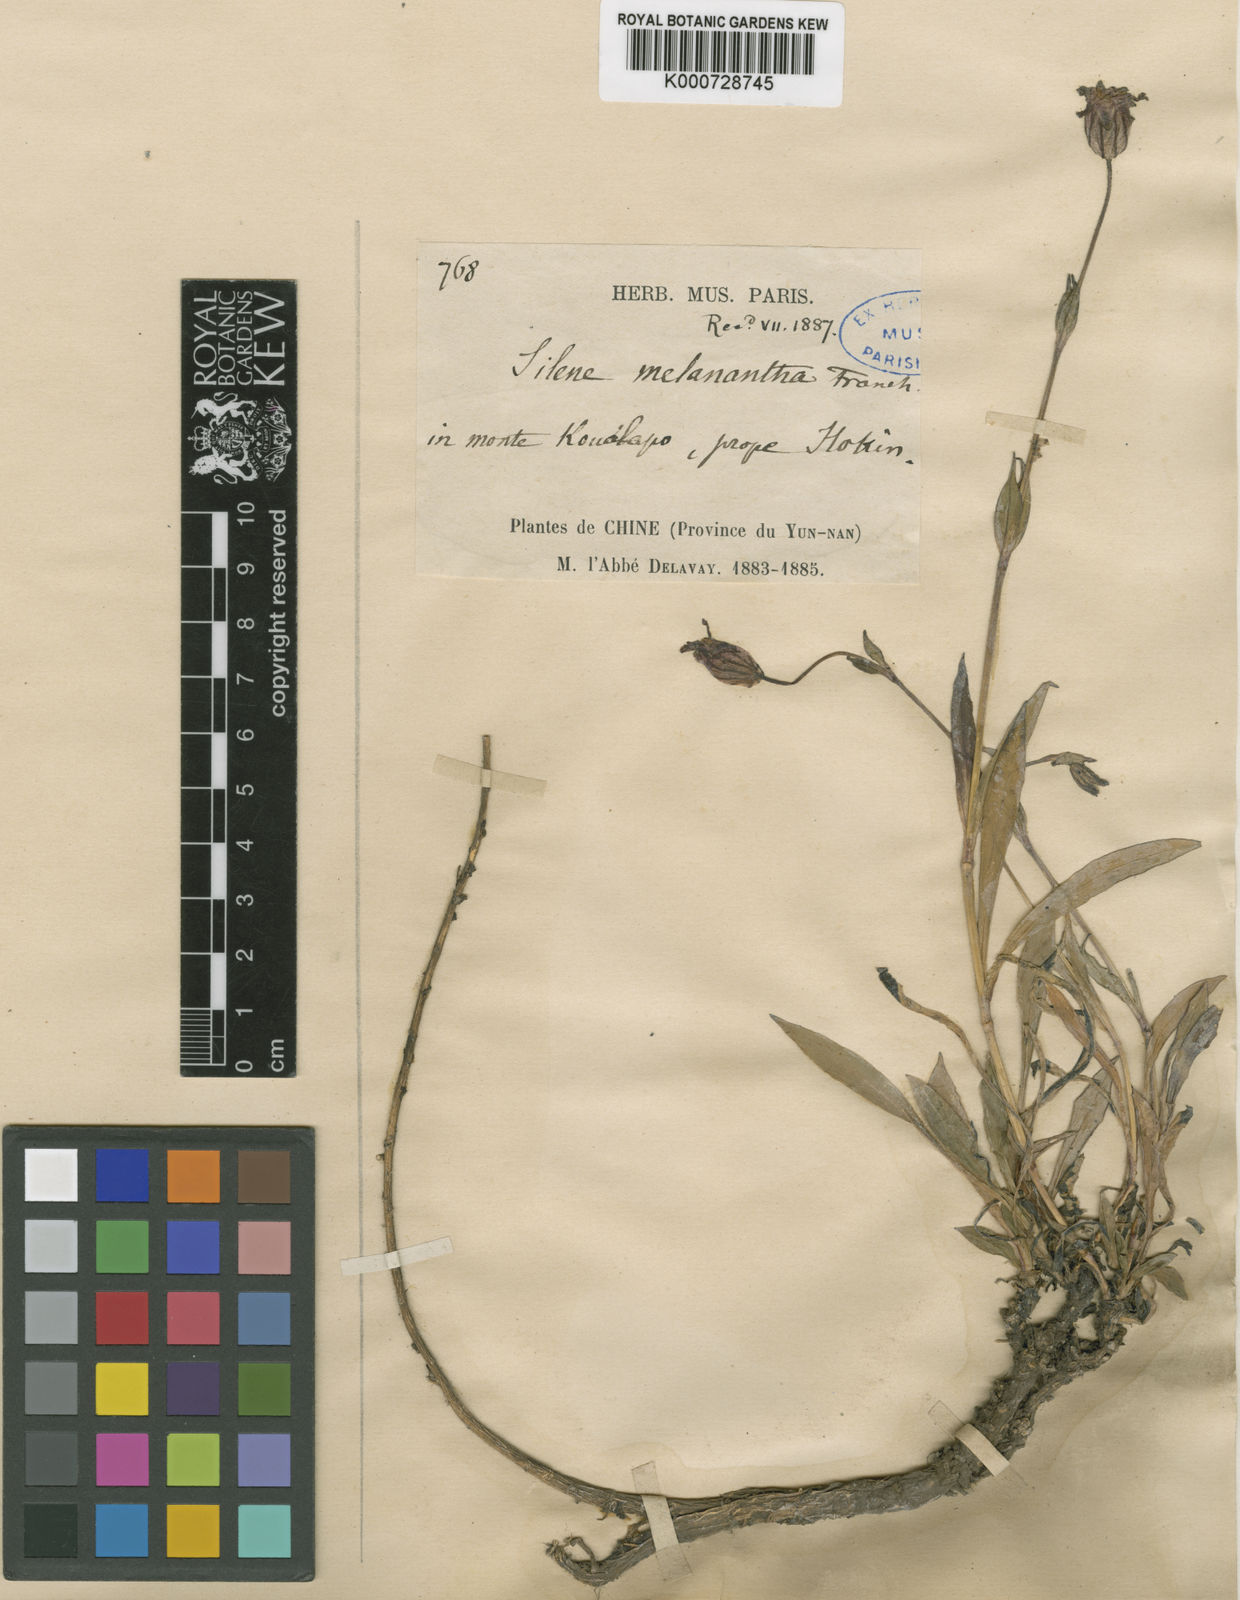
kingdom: Plantae
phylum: Tracheophyta
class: Magnoliopsida
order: Caryophyllales
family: Caryophyllaceae
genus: Silene
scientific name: Silene melanantha
